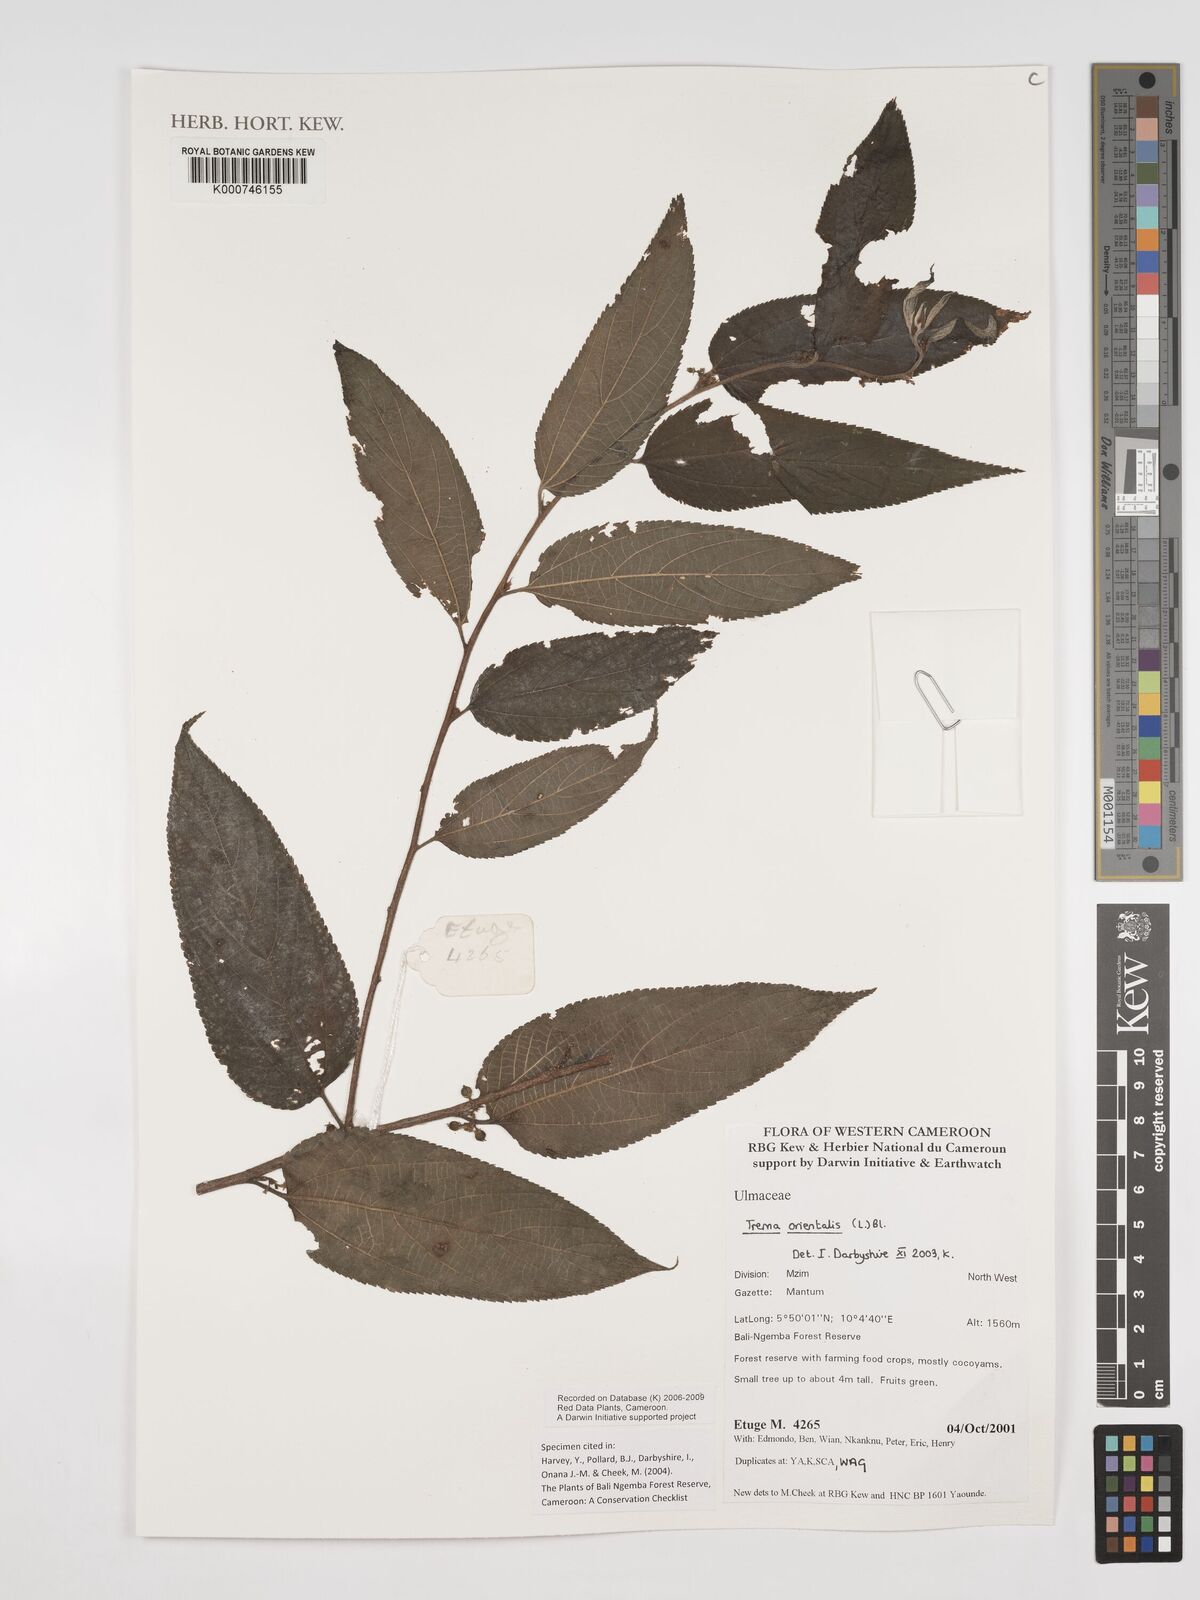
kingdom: Plantae
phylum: Tracheophyta
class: Magnoliopsida
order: Rosales
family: Cannabaceae
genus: Trema
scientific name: Trema
